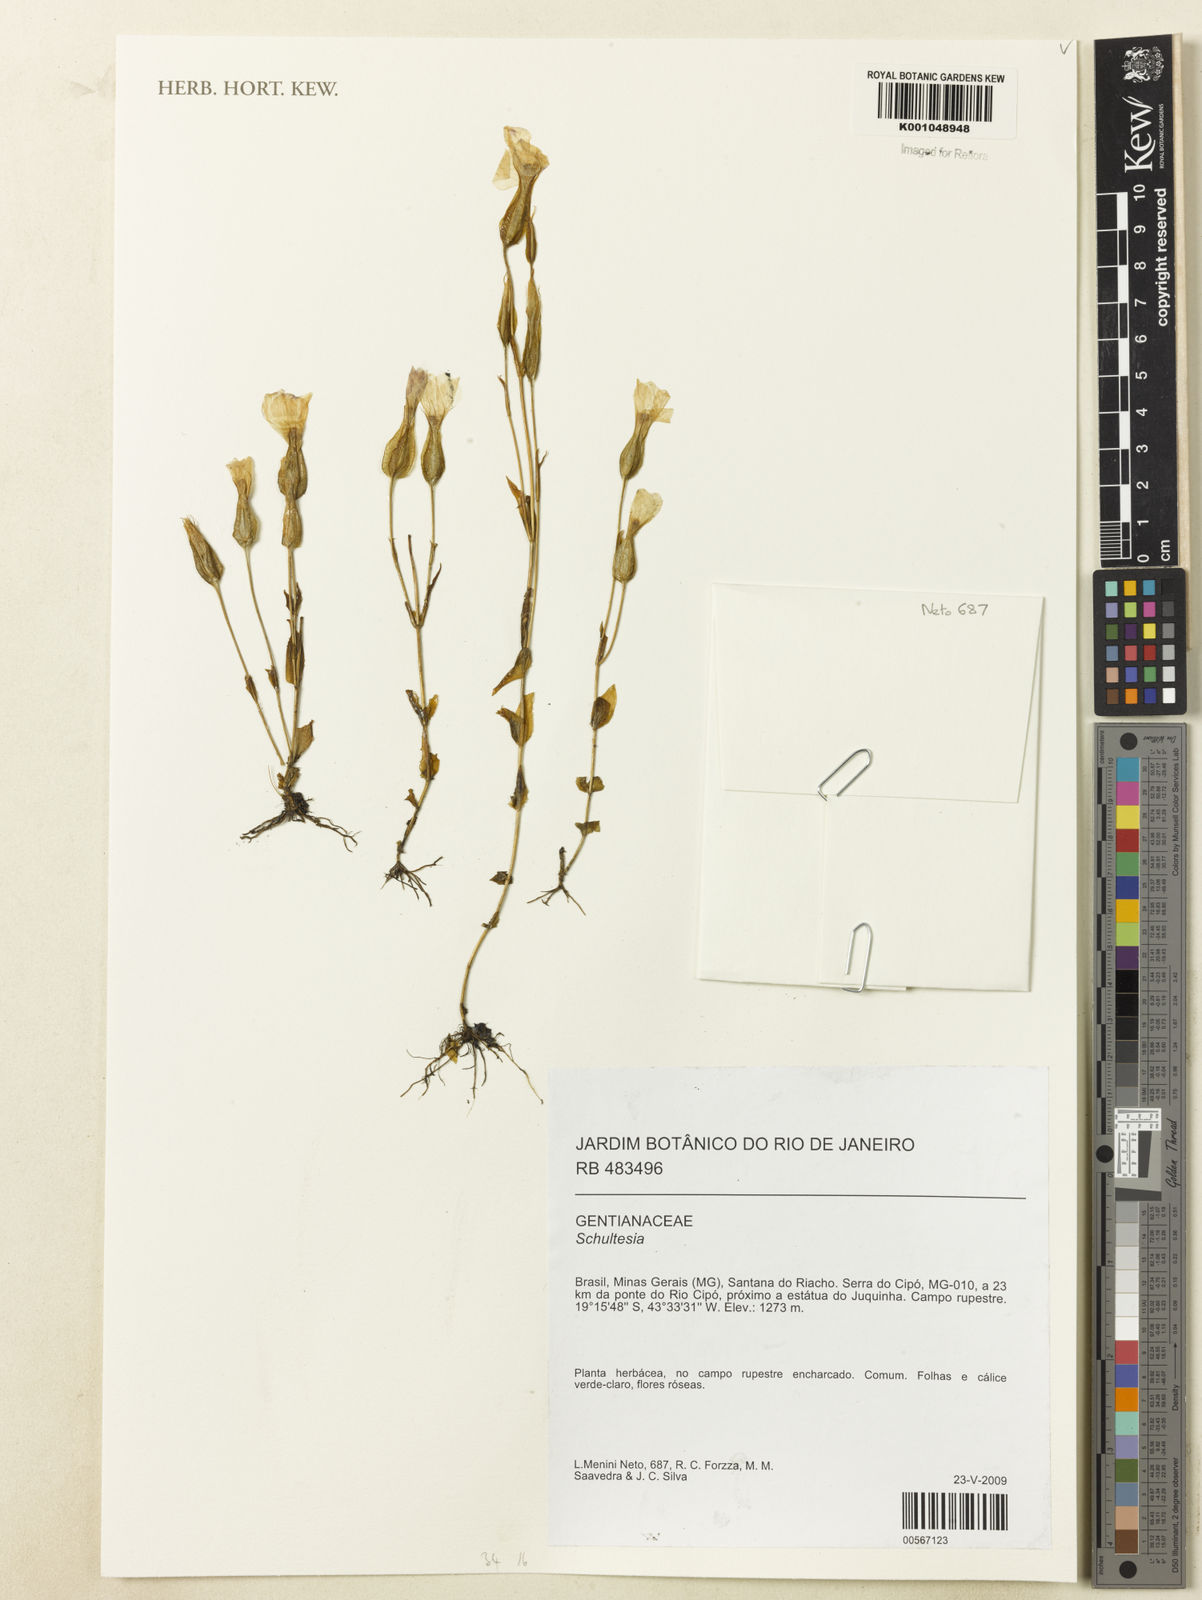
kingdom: Plantae
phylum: Tracheophyta
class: Magnoliopsida
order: Gentianales
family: Gentianaceae
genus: Schultesia
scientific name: Schultesia
